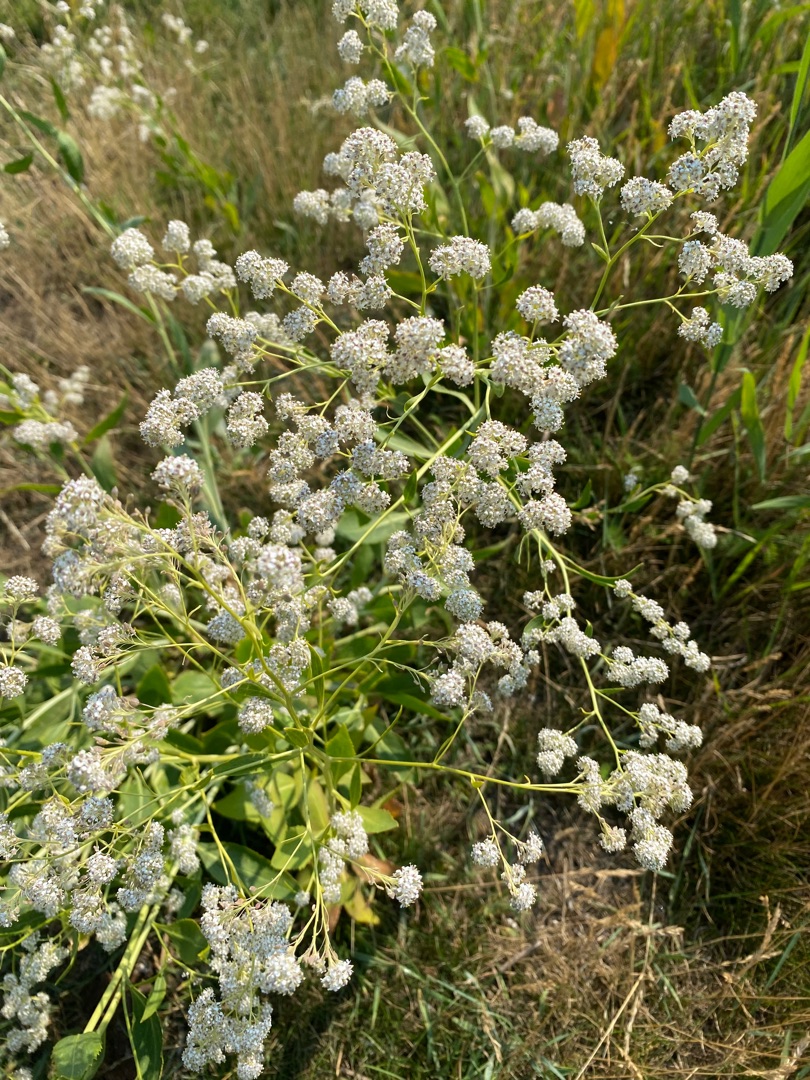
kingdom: Plantae
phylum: Tracheophyta
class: Magnoliopsida
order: Brassicales
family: Brassicaceae
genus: Lepidium
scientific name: Lepidium latifolium
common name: Strand-karse
